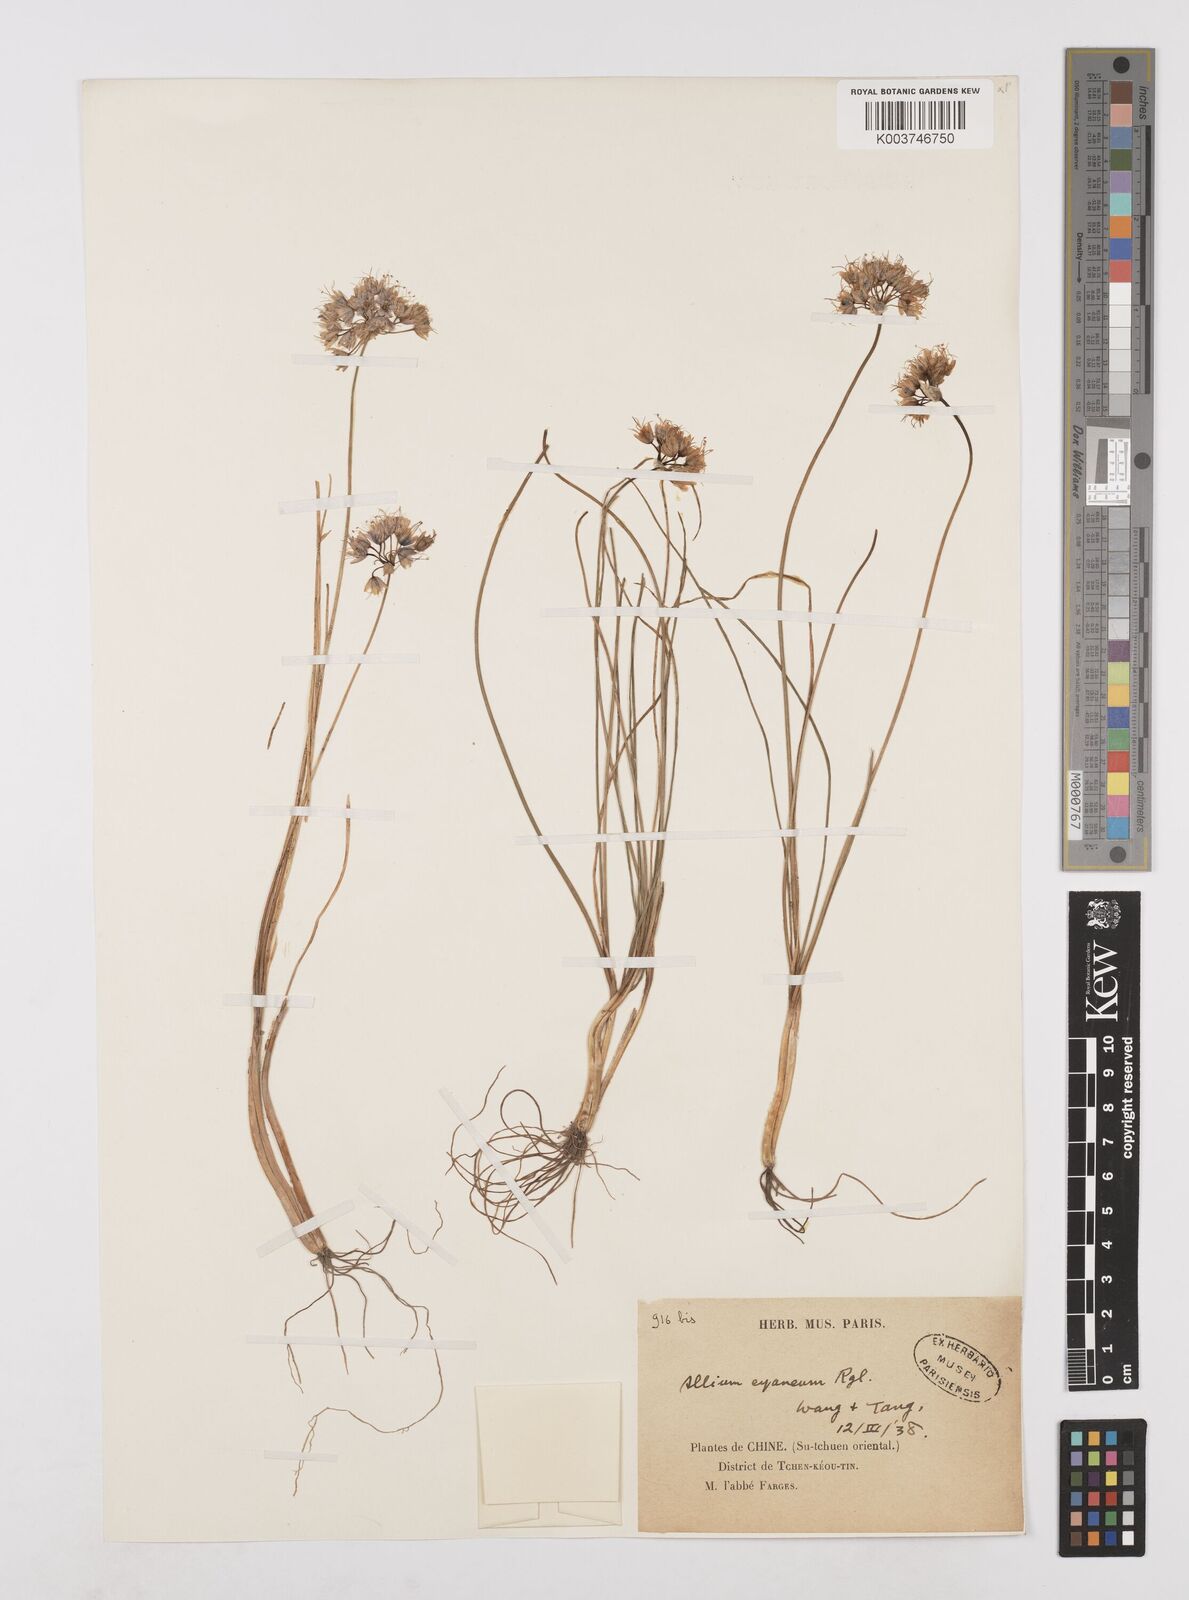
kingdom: Plantae
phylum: Tracheophyta
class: Liliopsida
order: Asparagales
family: Amaryllidaceae
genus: Allium
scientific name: Allium cyaneum
